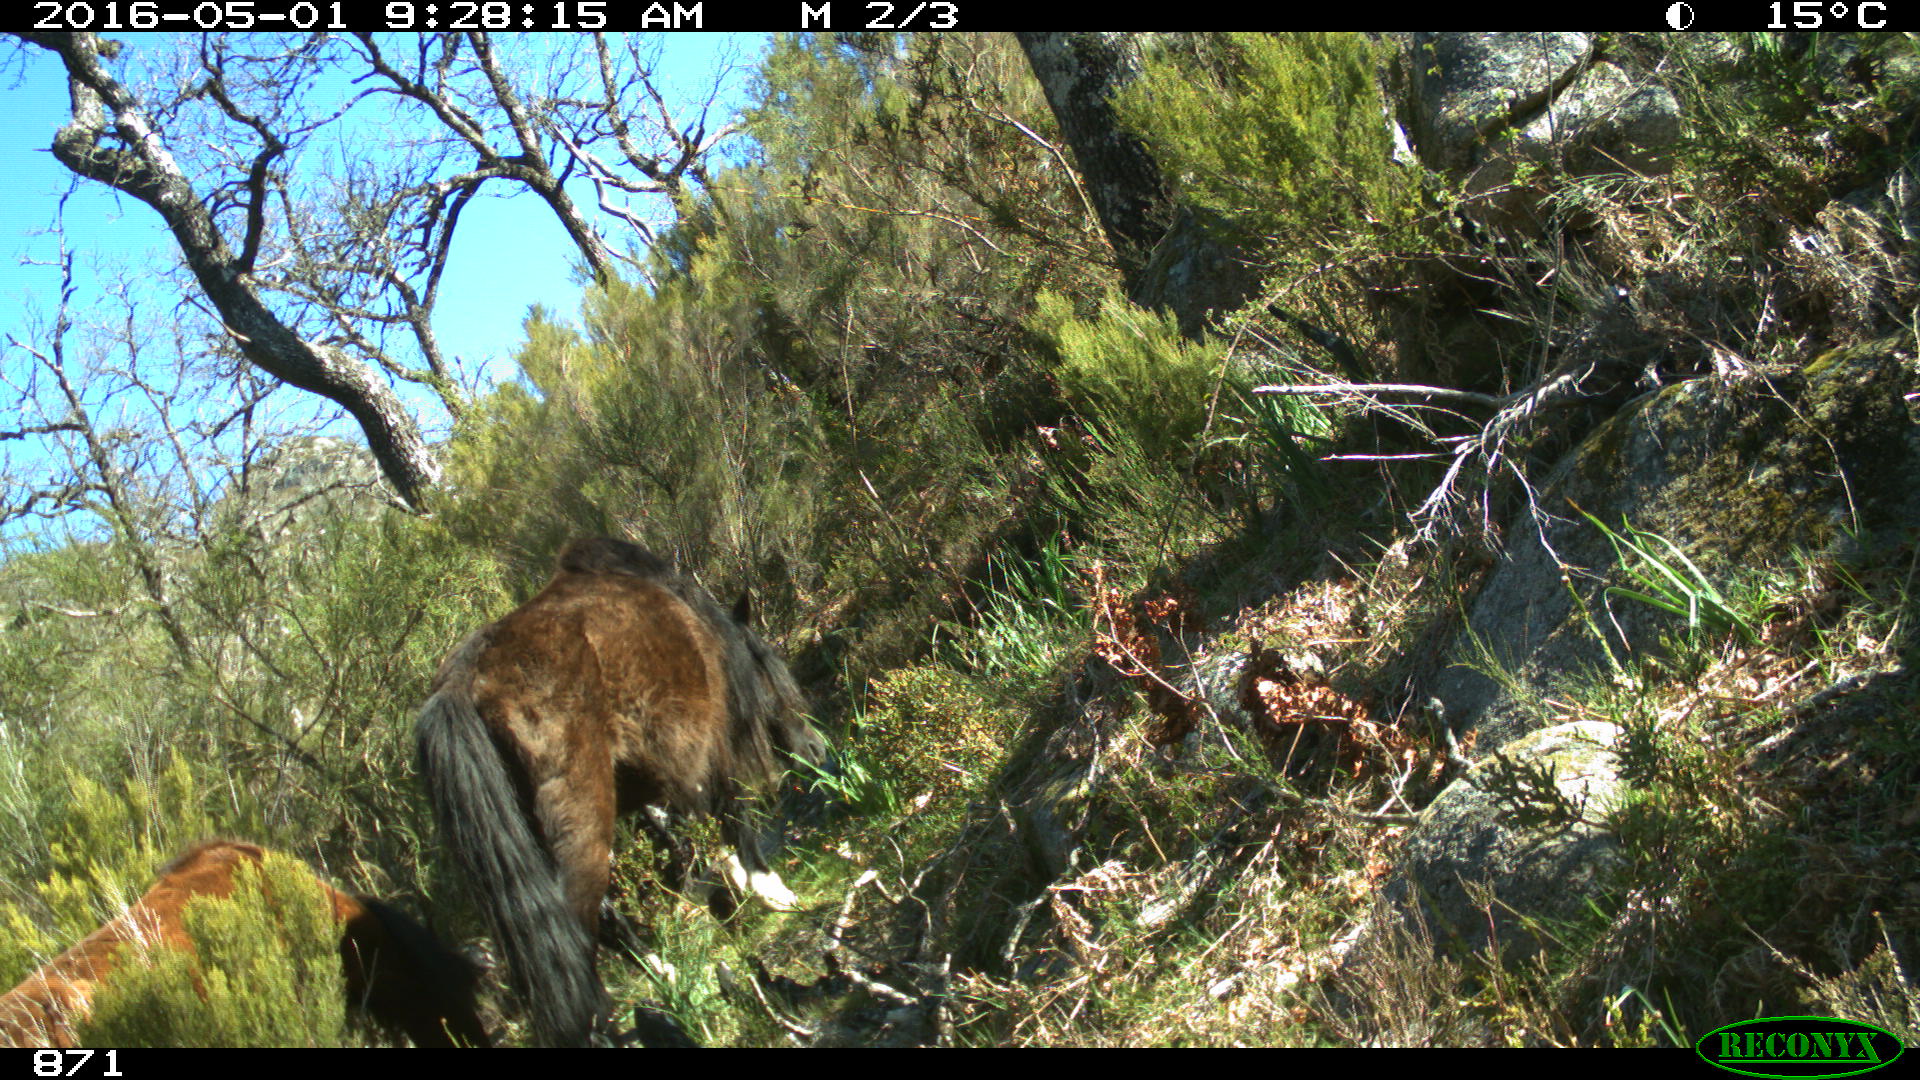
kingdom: Animalia
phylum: Chordata
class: Mammalia
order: Perissodactyla
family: Equidae
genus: Equus
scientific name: Equus caballus
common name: Horse
